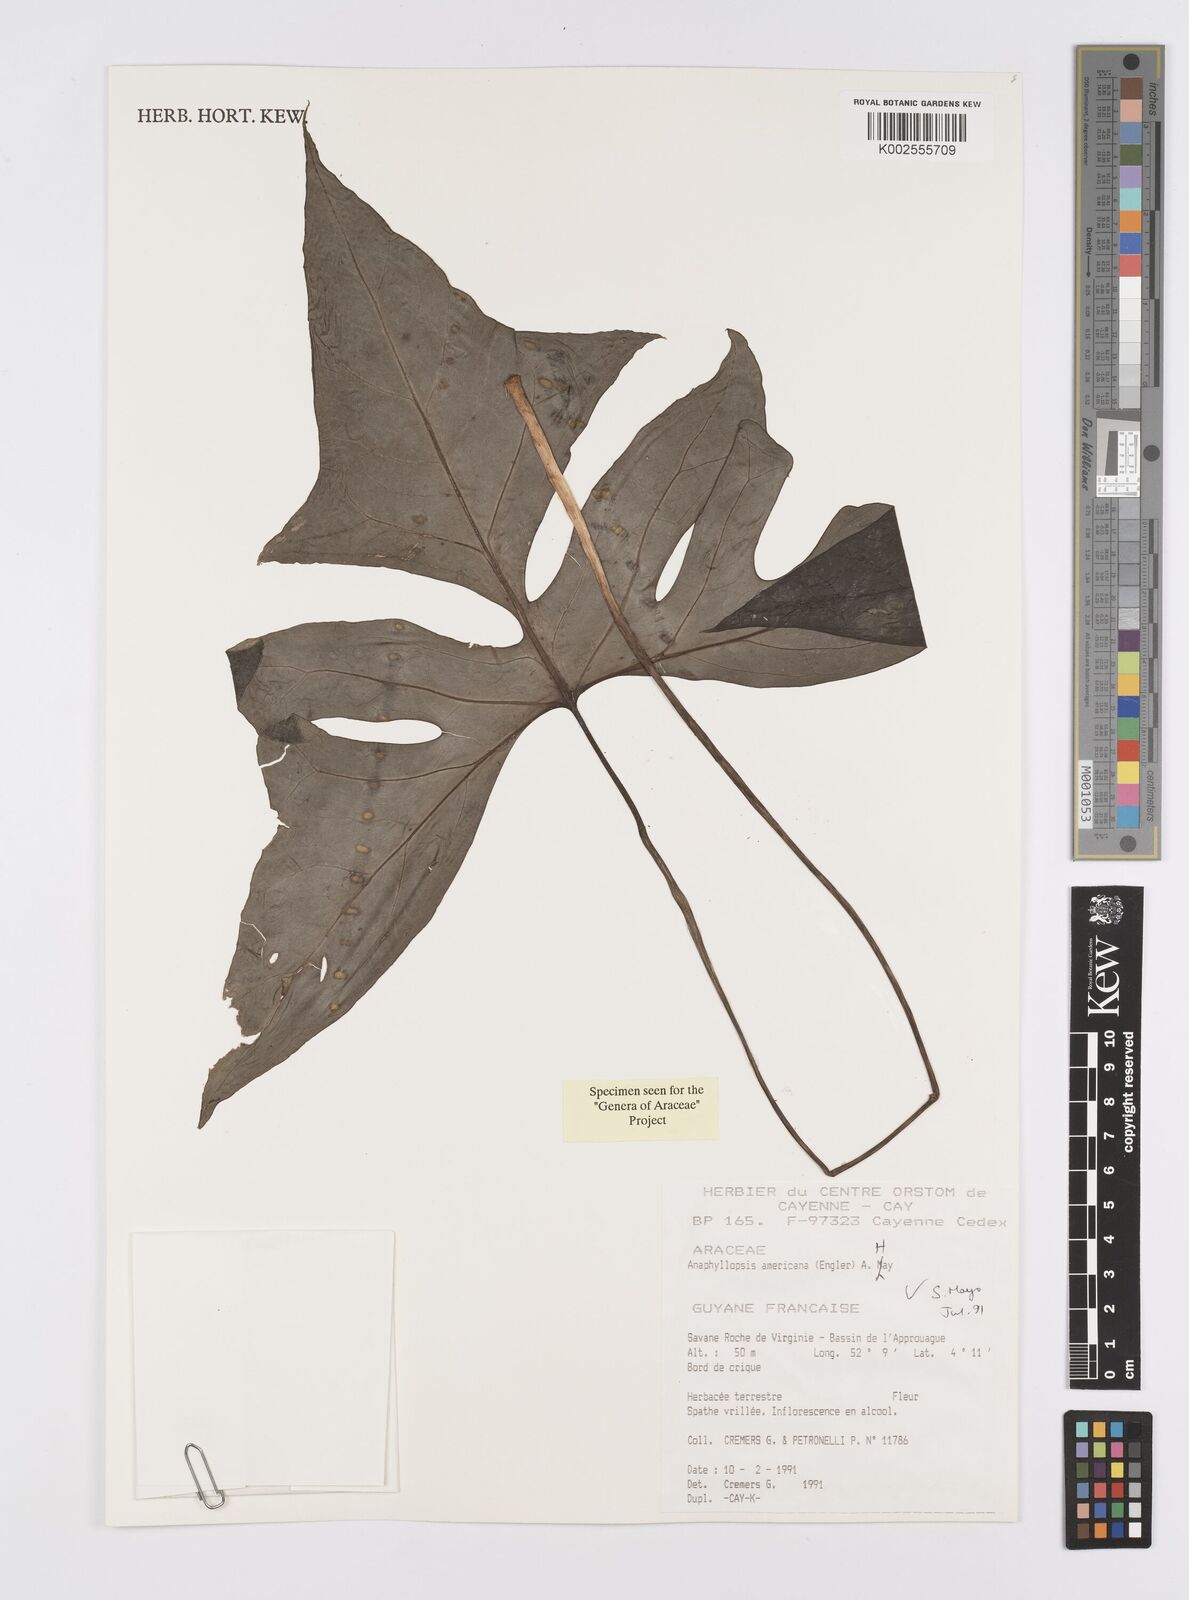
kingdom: Plantae
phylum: Tracheophyta
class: Liliopsida
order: Alismatales
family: Araceae
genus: Anaphyllopsis
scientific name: Anaphyllopsis americana
